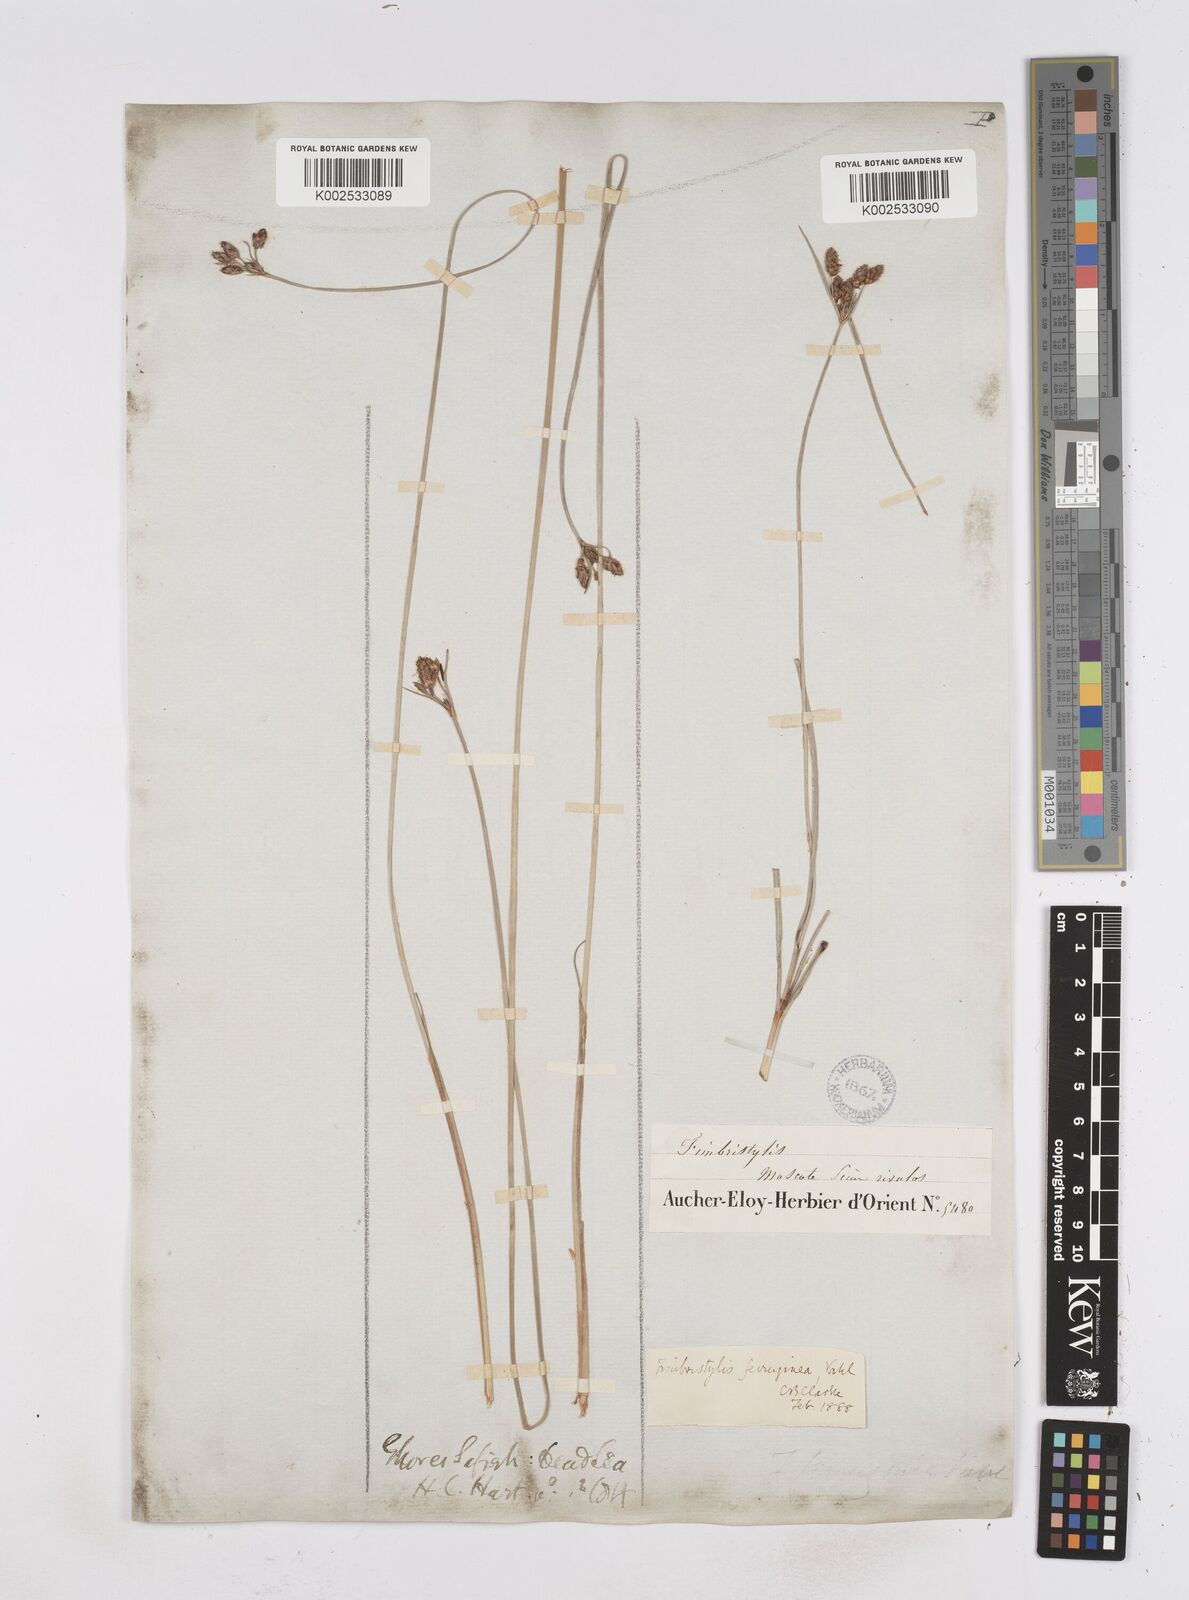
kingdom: Plantae
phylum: Tracheophyta
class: Liliopsida
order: Poales
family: Cyperaceae
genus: Fimbristylis
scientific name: Fimbristylis ferruginea
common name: West indian fimbry
